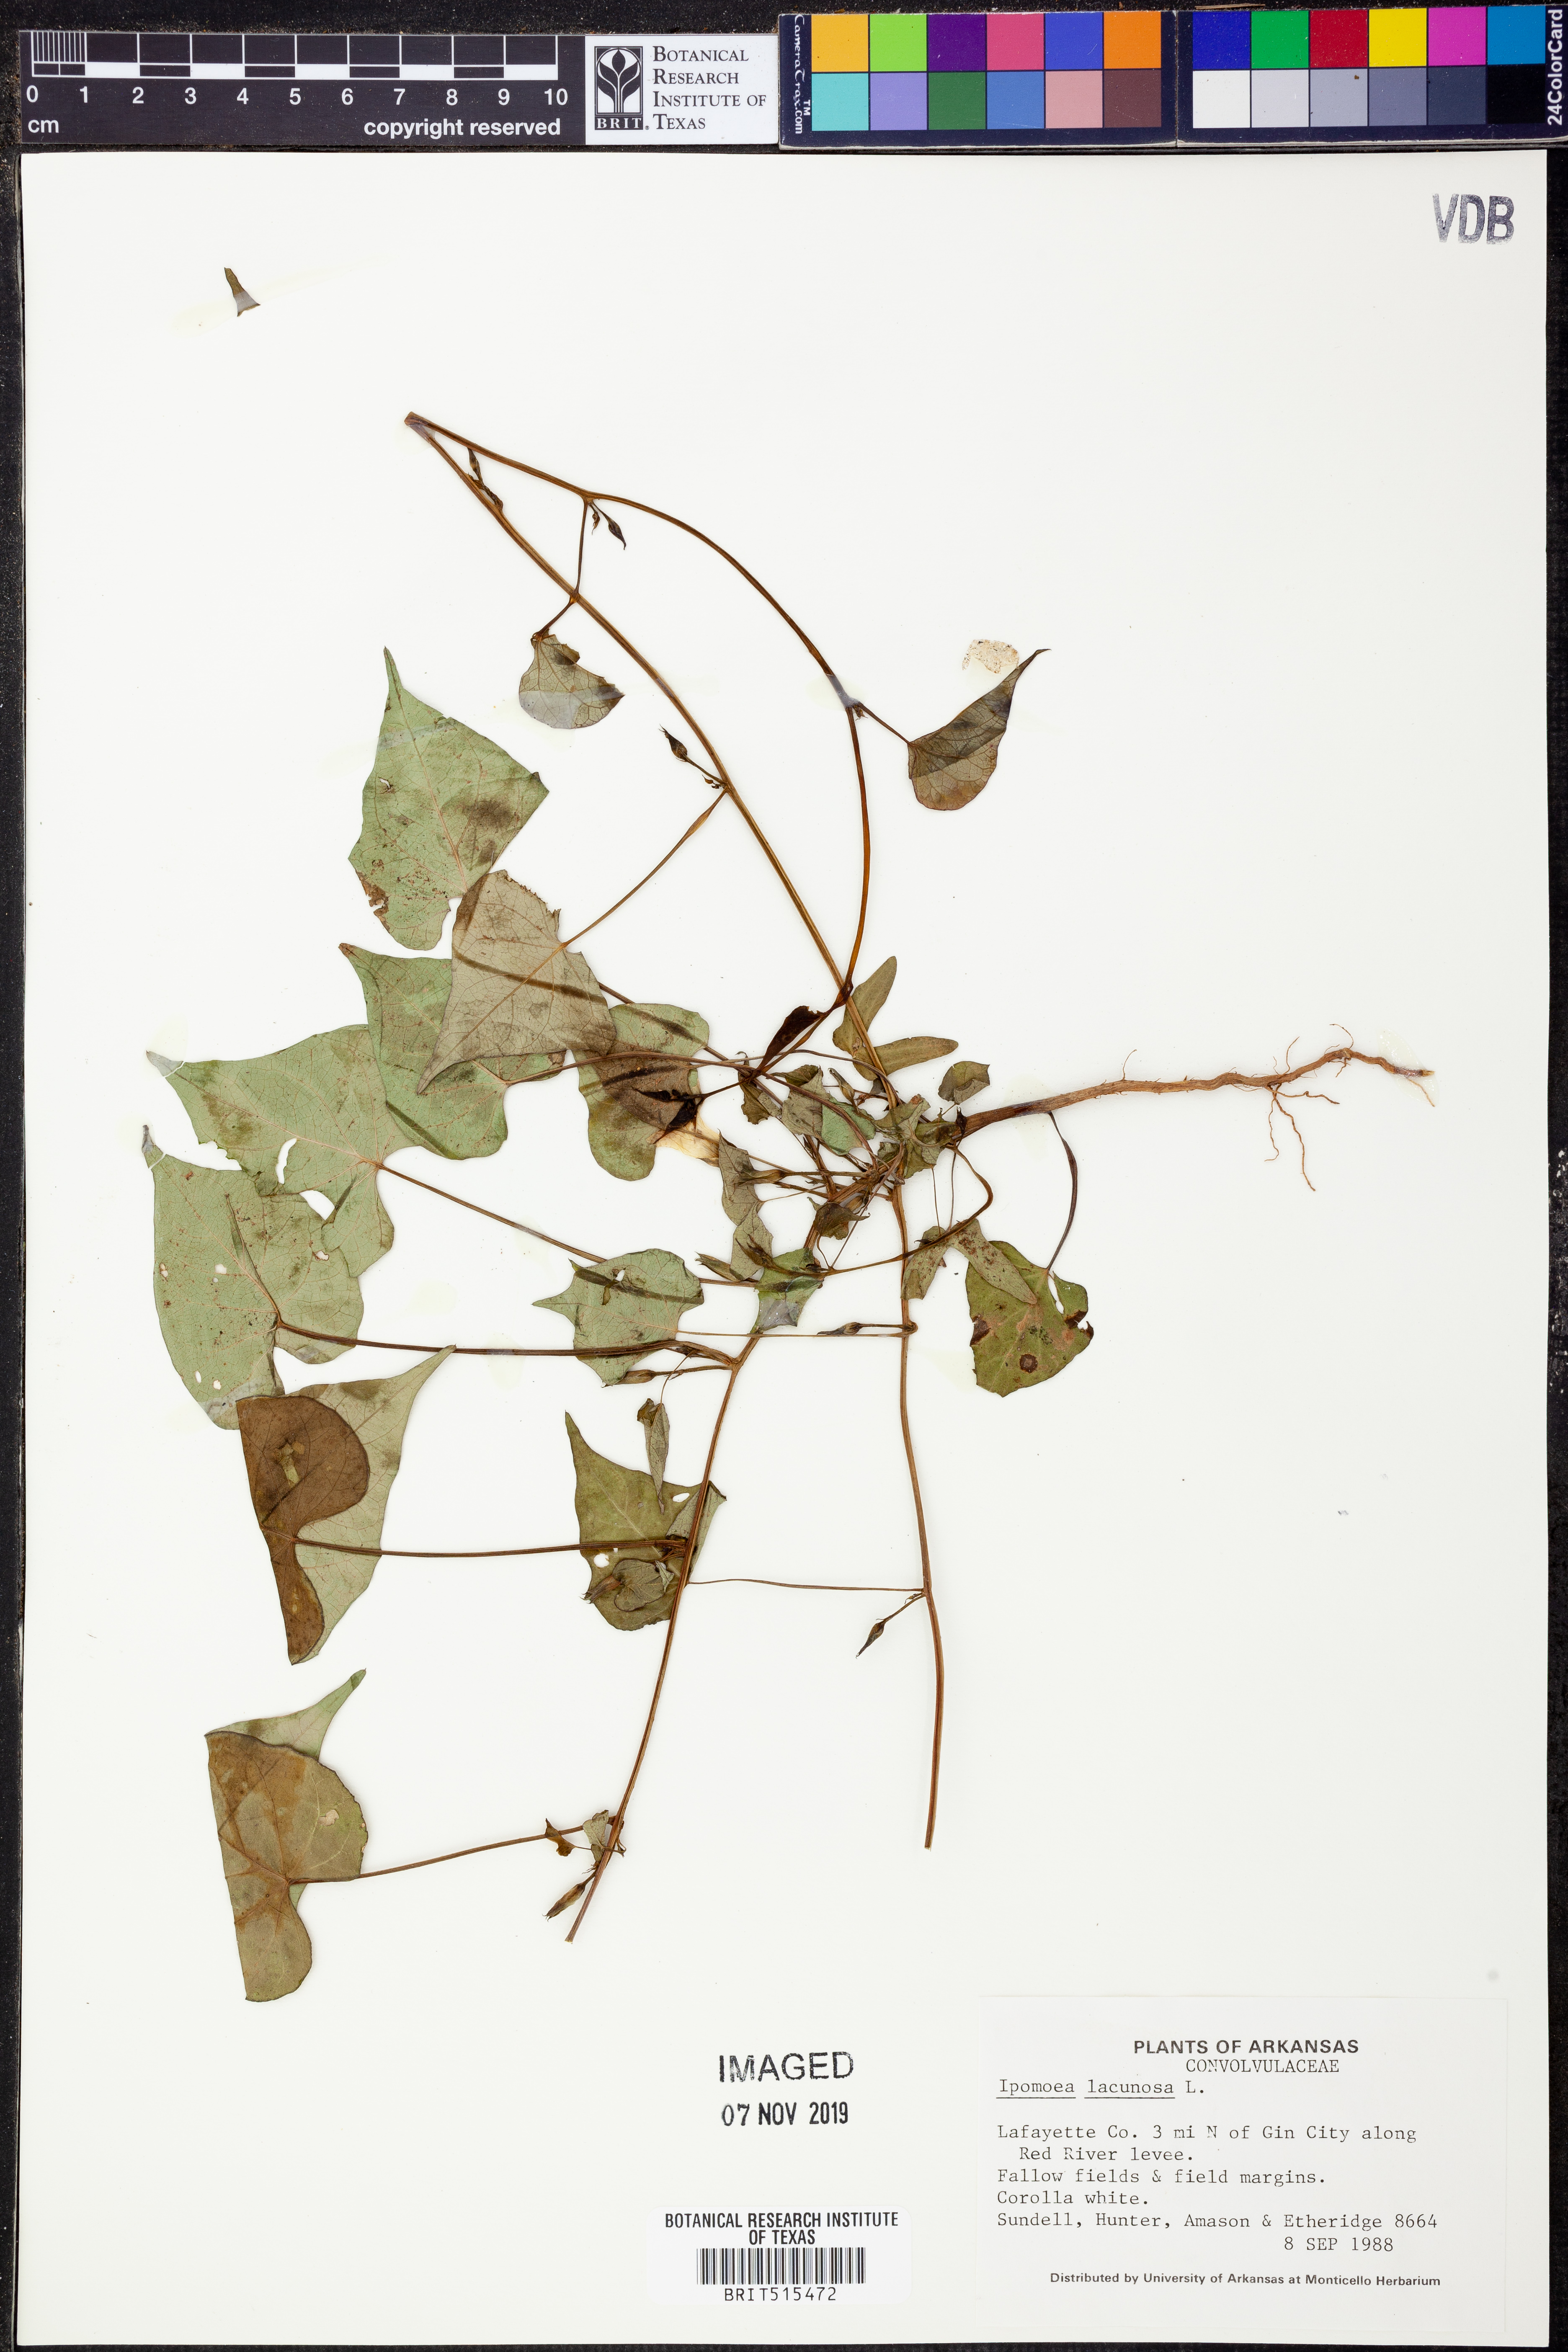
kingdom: Plantae
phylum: Tracheophyta
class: Magnoliopsida
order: Solanales
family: Convolvulaceae
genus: Ipomoea
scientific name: Ipomoea lacunosa
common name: White morning-glory
